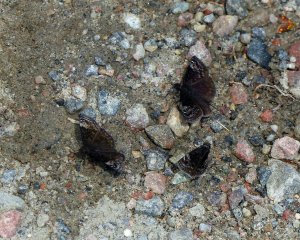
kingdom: Animalia
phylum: Arthropoda
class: Insecta
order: Lepidoptera
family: Hesperiidae
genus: Gesta
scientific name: Gesta
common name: Columbine Duskywing
